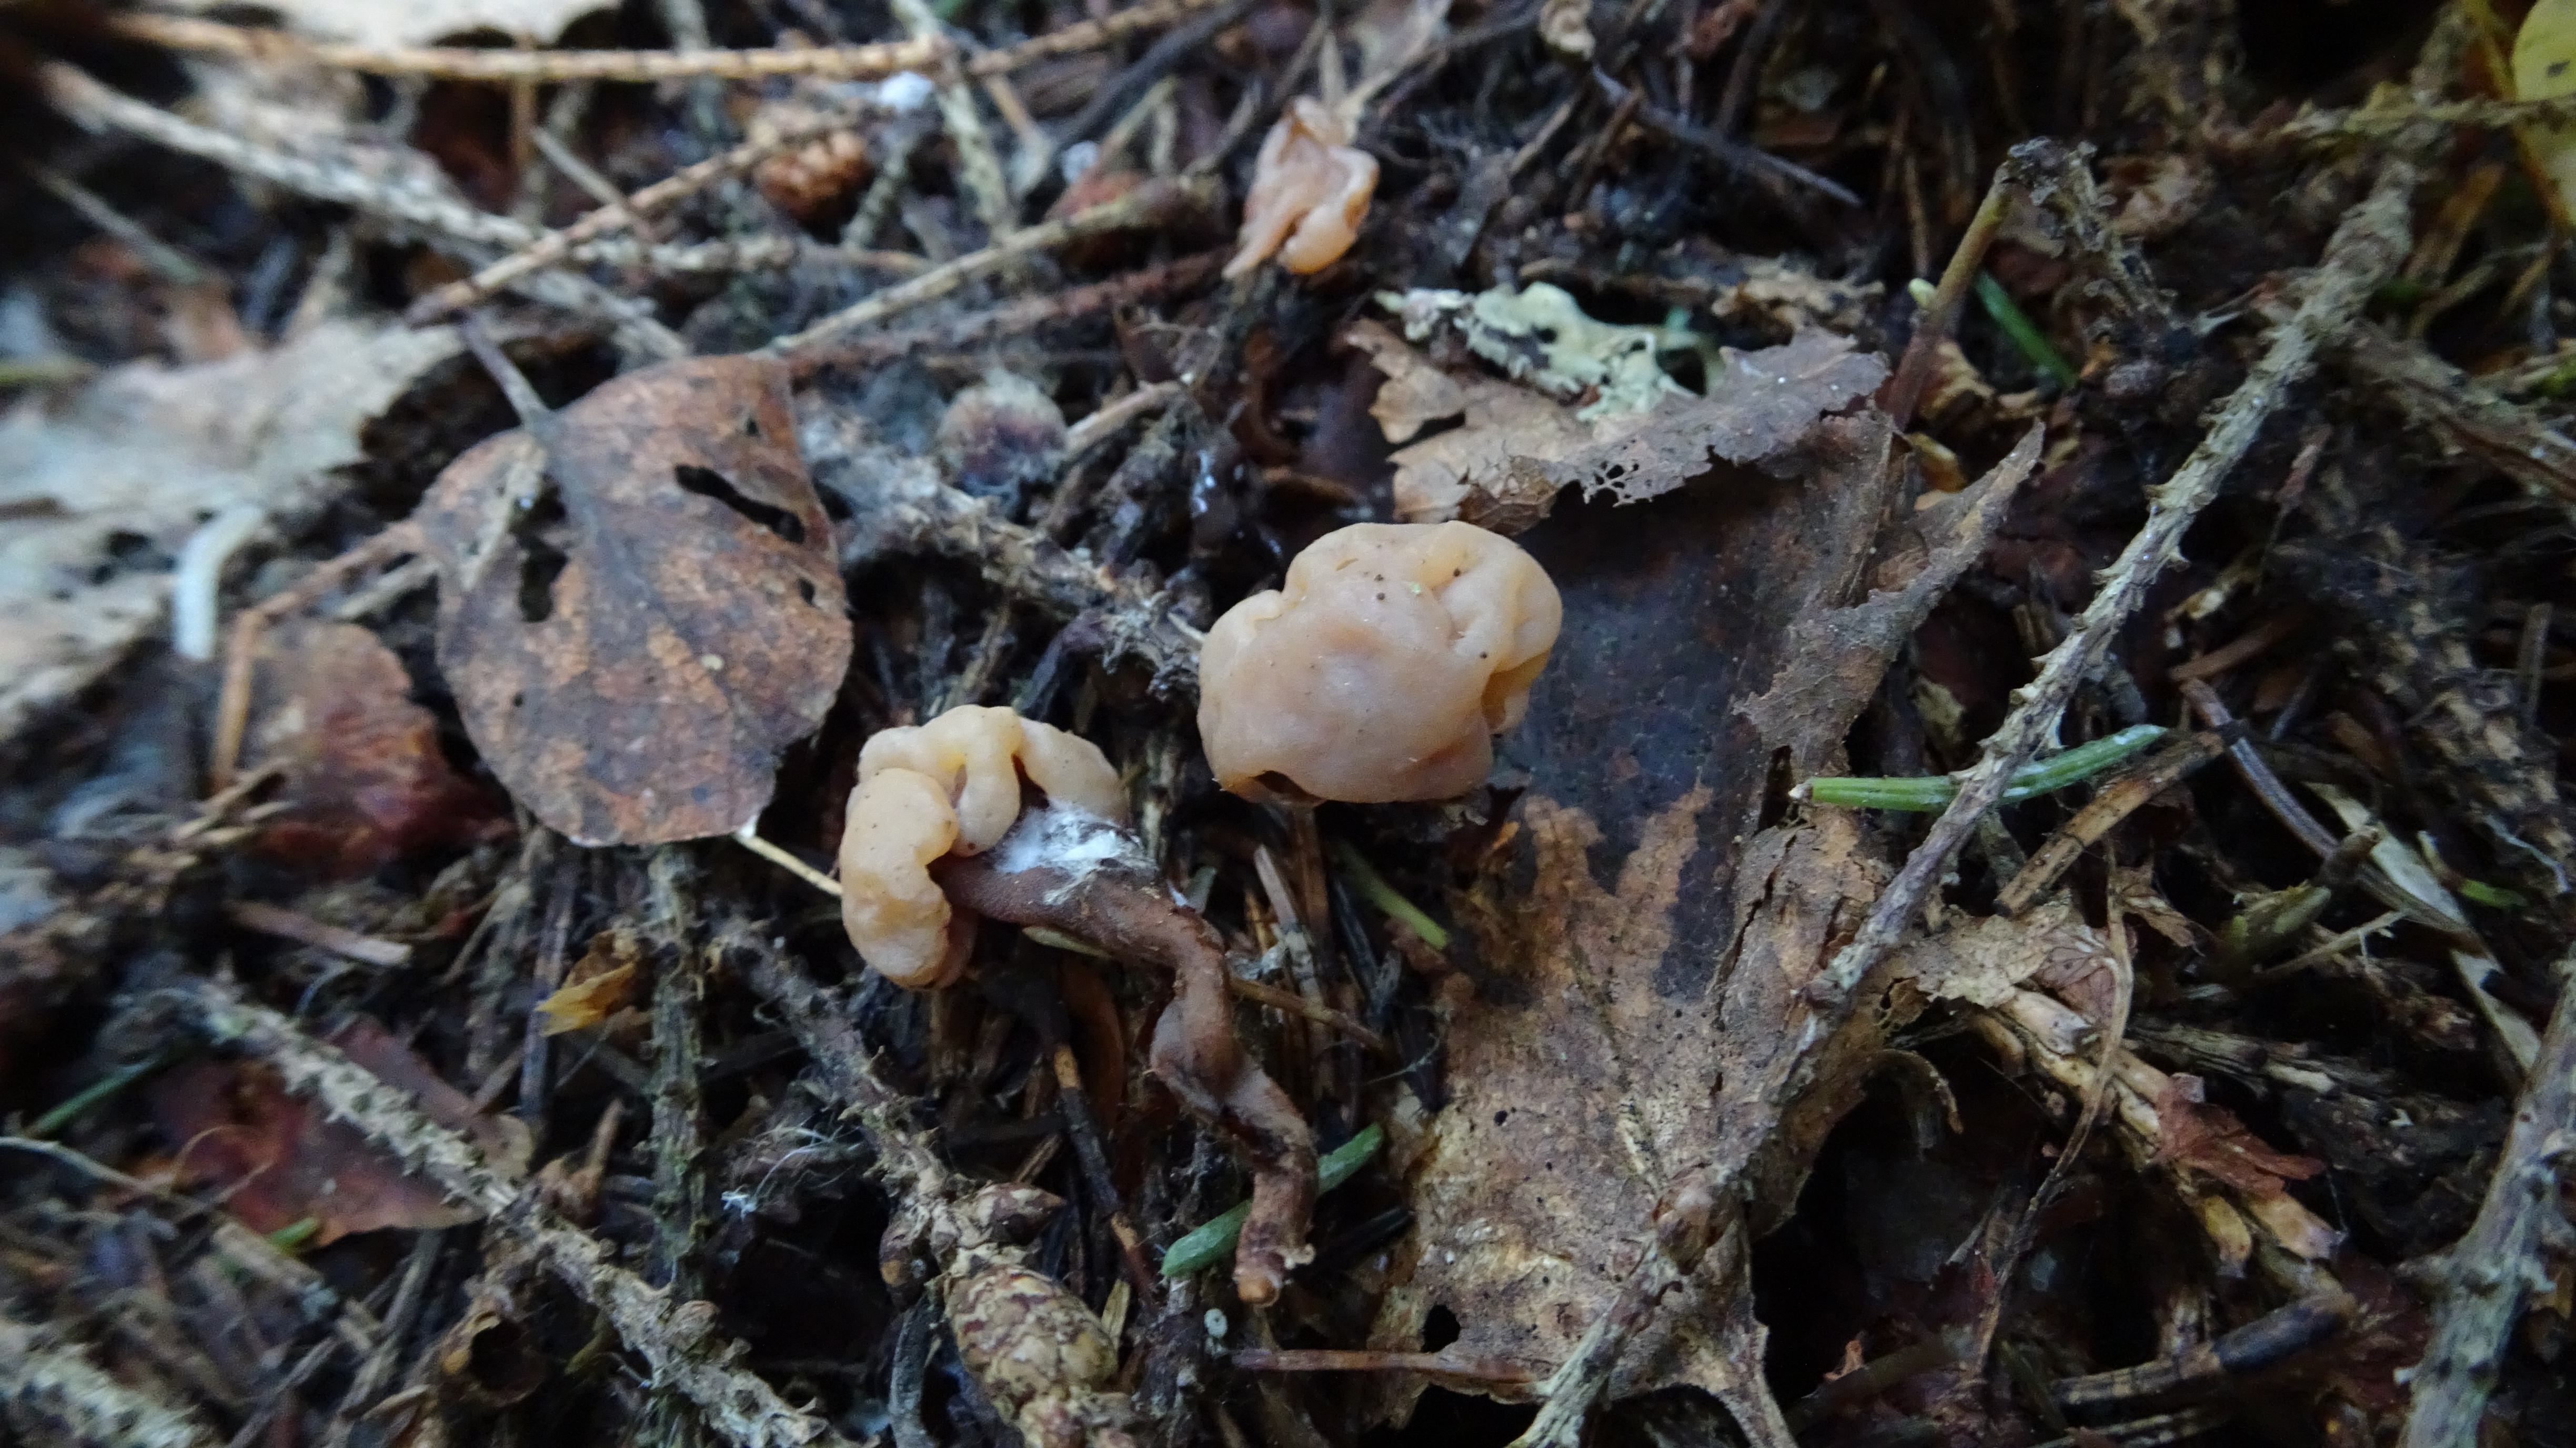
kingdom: Fungi
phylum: Ascomycota
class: Leotiomycetes
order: Rhytismatales
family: Cudoniaceae
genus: Cudonia
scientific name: Cudonia circinans
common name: Redleg jellybaby
